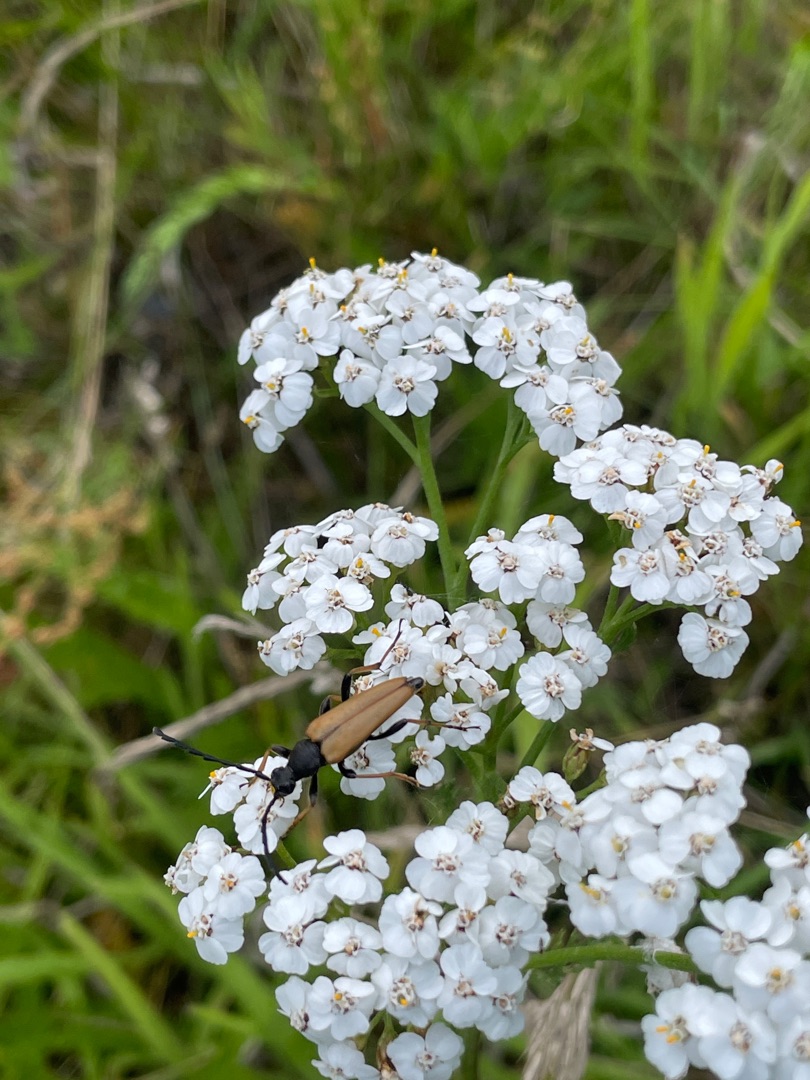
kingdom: Animalia
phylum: Arthropoda
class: Insecta
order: Coleoptera
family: Cerambycidae
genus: Stictoleptura
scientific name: Stictoleptura rubra
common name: Rød blomsterbuk
